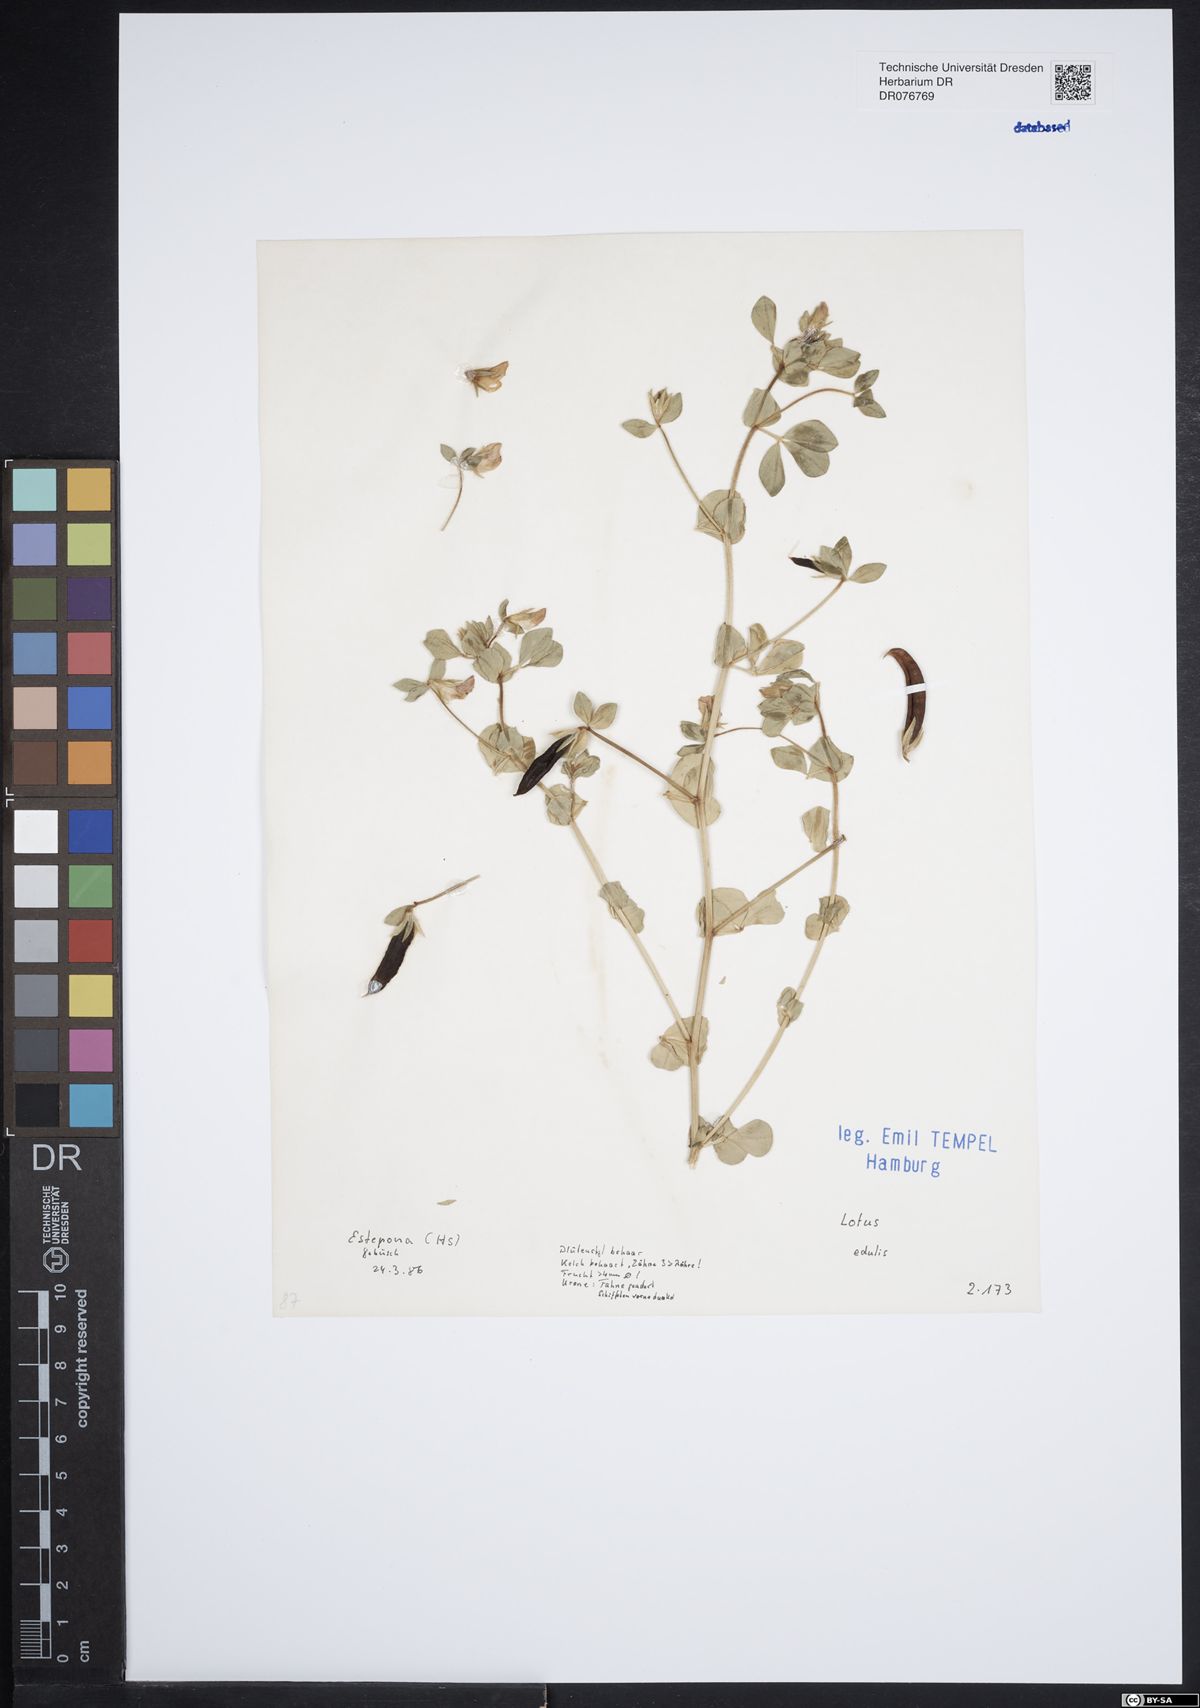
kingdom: Plantae
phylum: Tracheophyta
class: Magnoliopsida
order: Fabales
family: Fabaceae
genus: Lotus
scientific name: Lotus edulis
